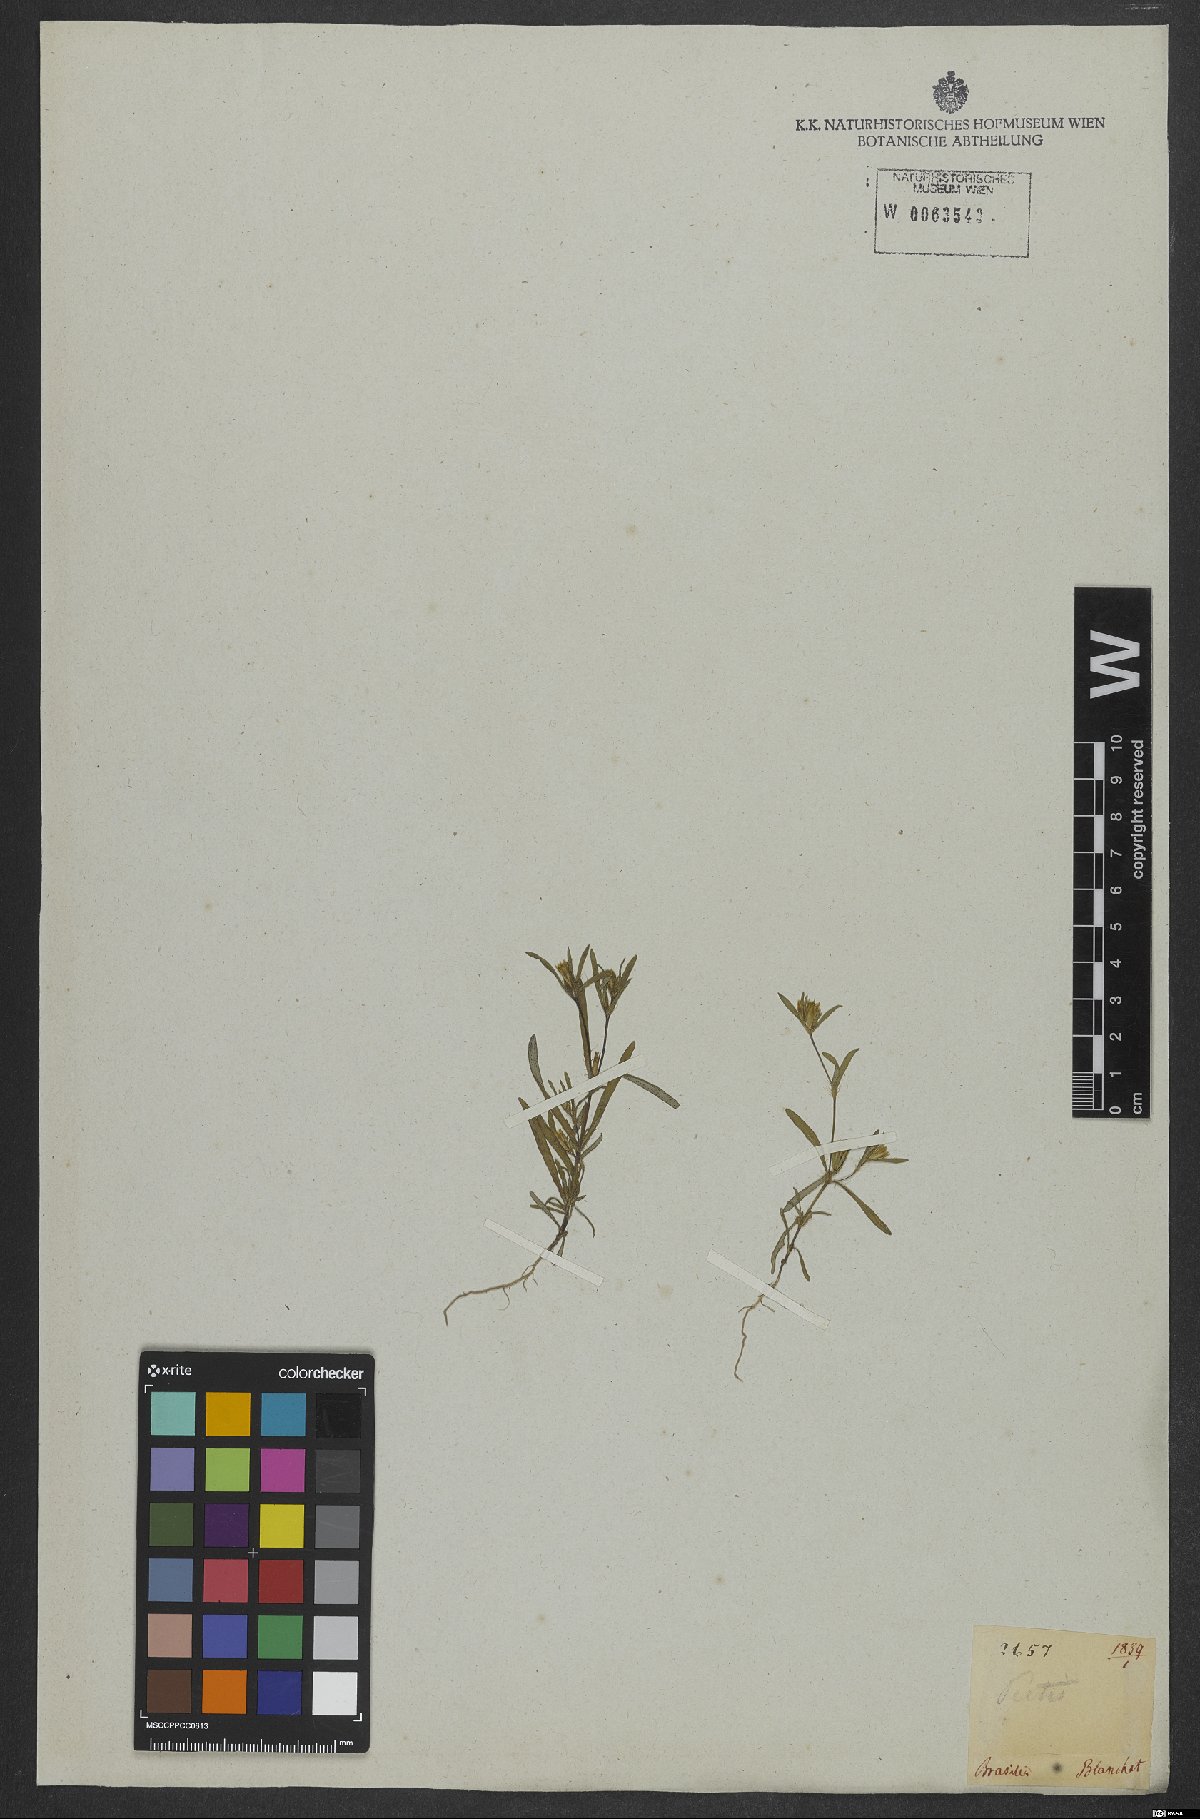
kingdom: Plantae
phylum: Tracheophyta
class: Magnoliopsida
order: Asterales
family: Asteraceae
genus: Pectis
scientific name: Pectis oligocephala
